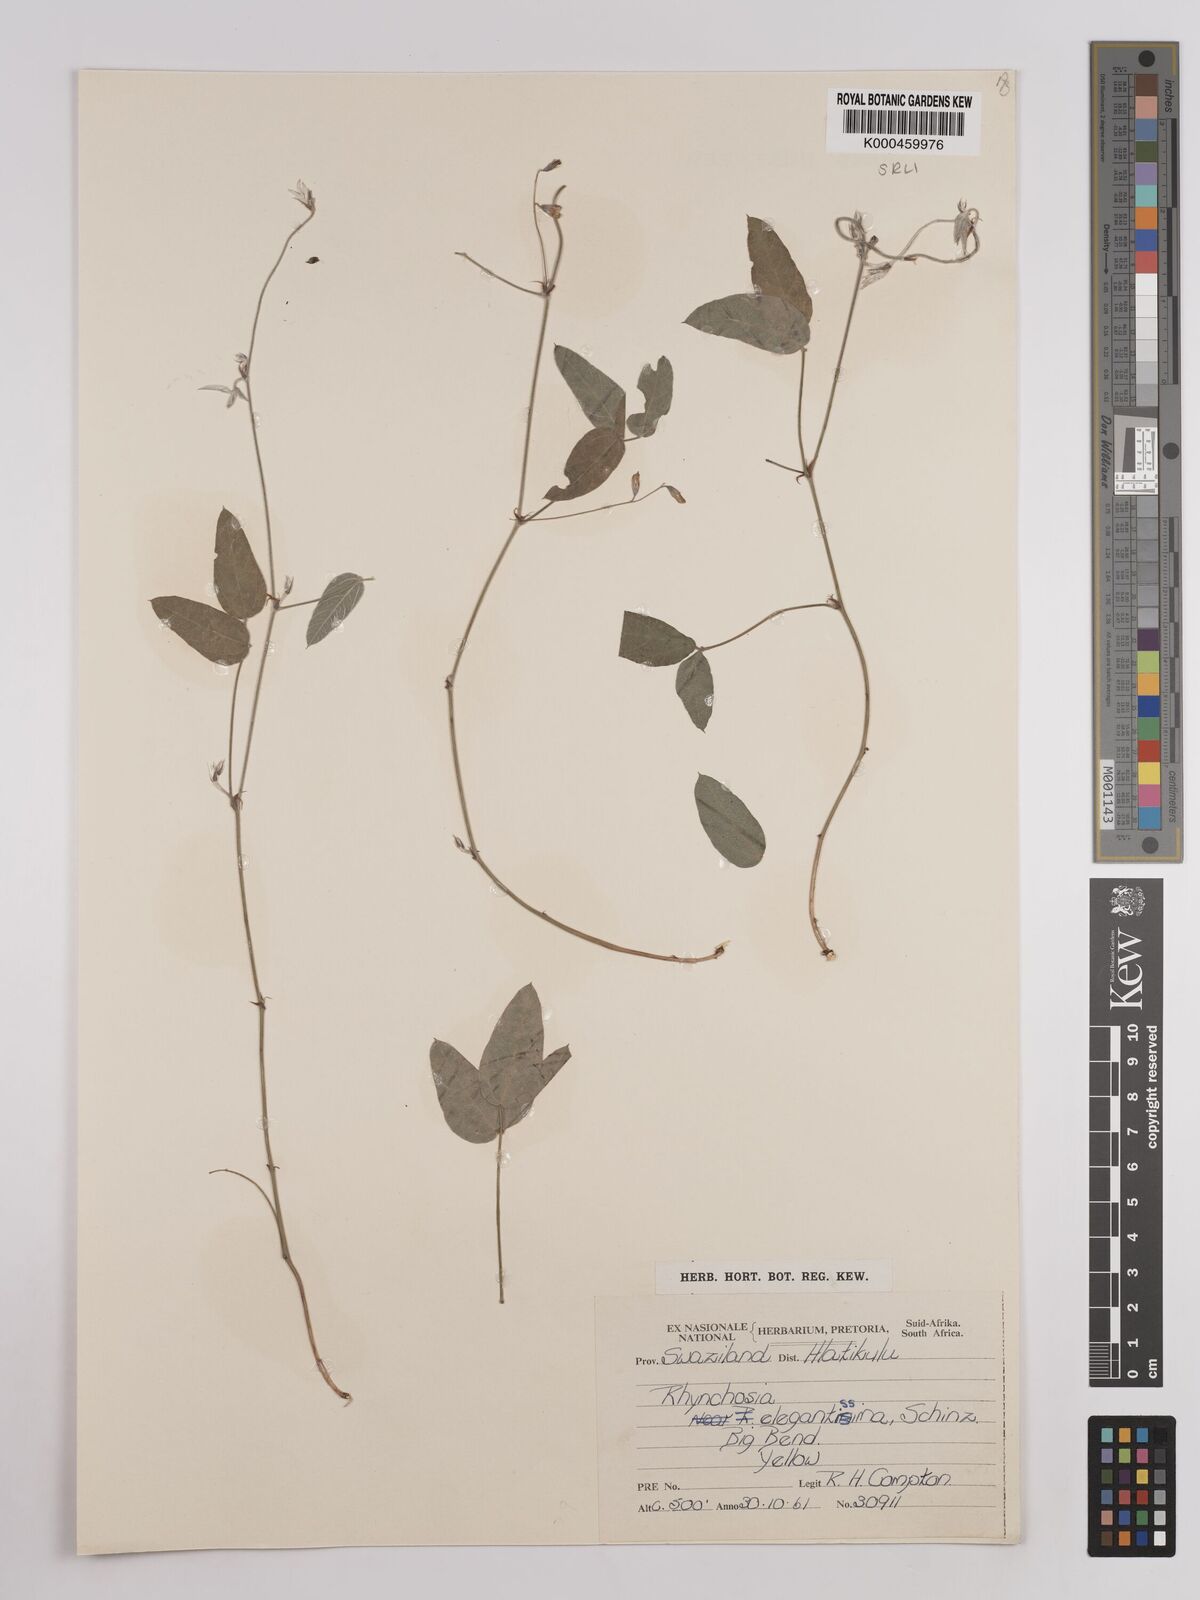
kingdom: Plantae
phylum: Tracheophyta
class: Magnoliopsida
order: Fabales
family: Fabaceae
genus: Rhynchosia
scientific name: Rhynchosia totta
